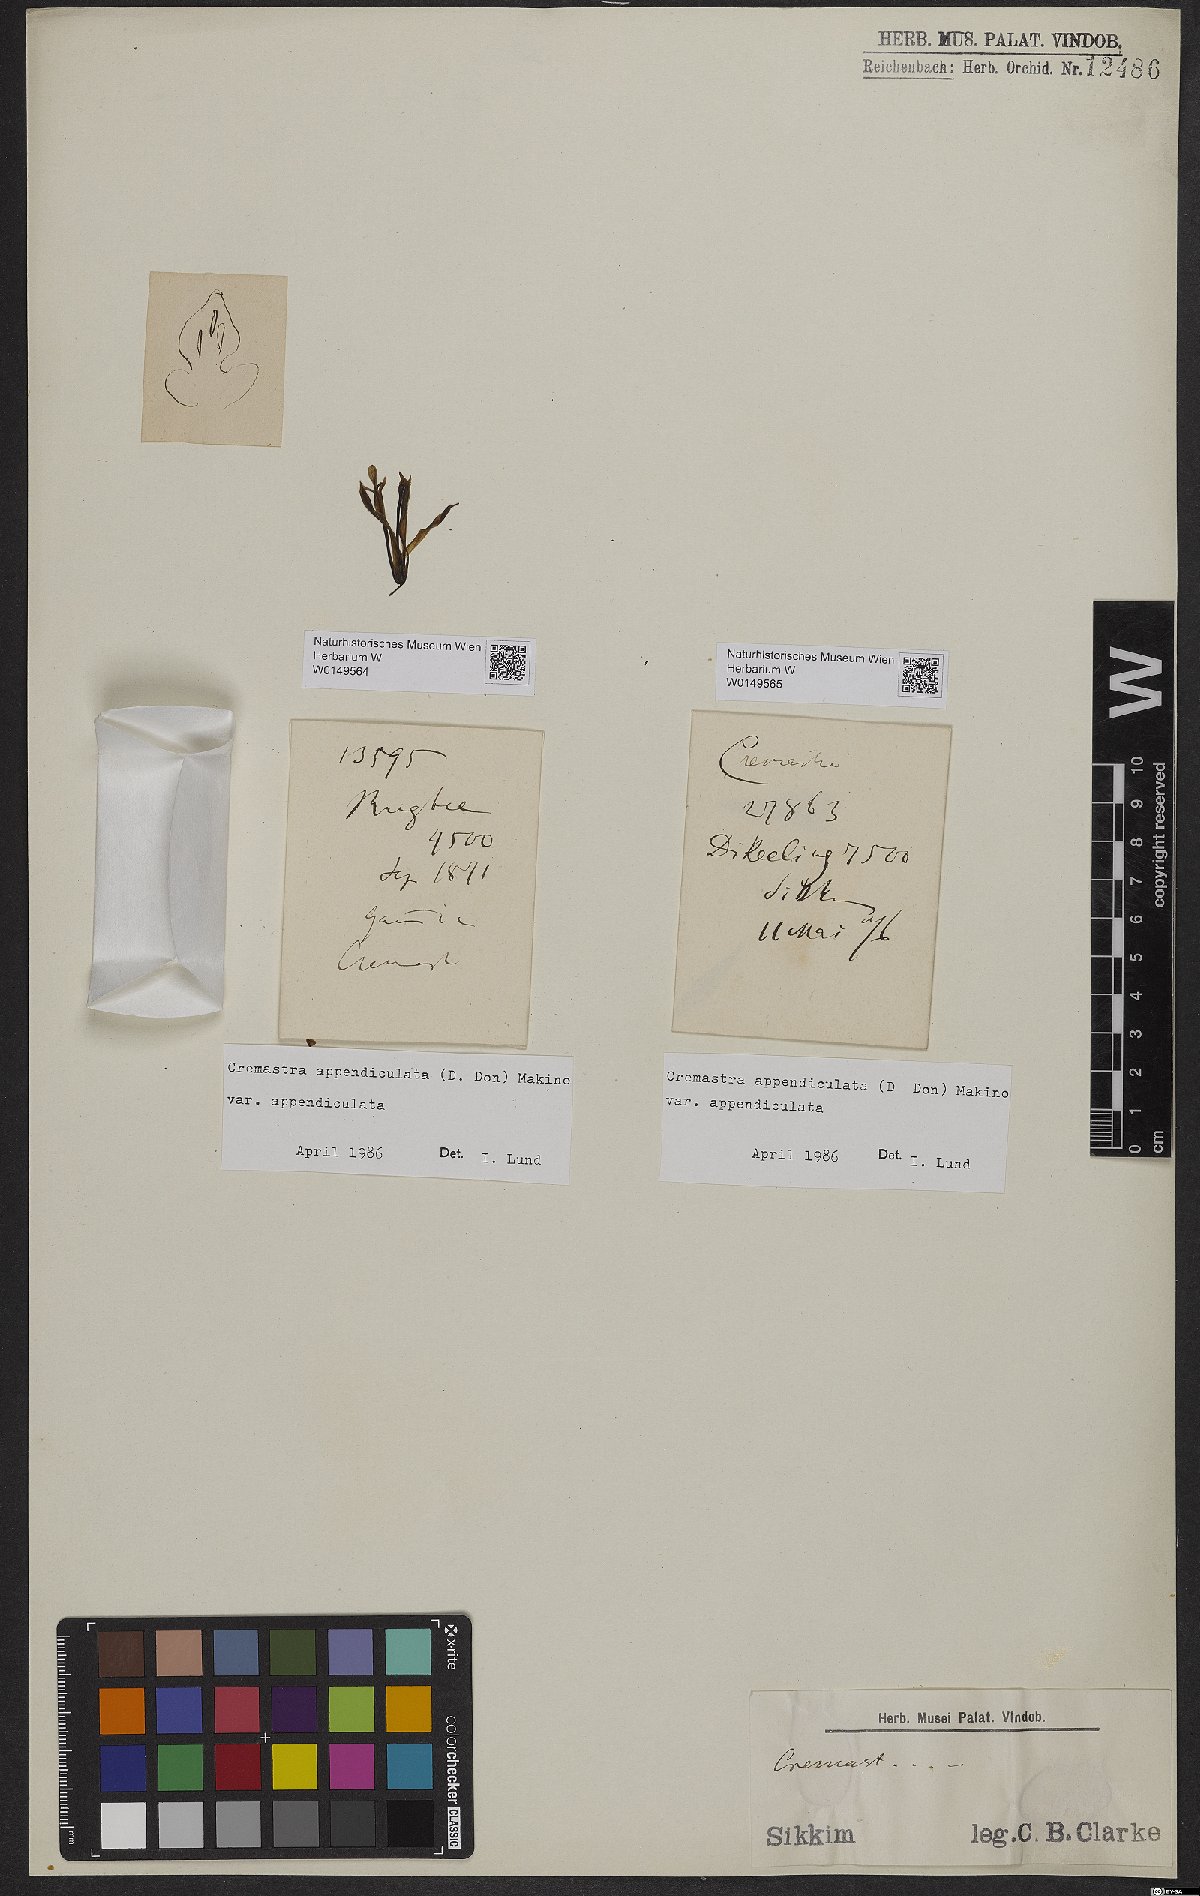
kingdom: Plantae
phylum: Tracheophyta
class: Liliopsida
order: Asparagales
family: Orchidaceae
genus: Cremastra
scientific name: Cremastra appendiculata
